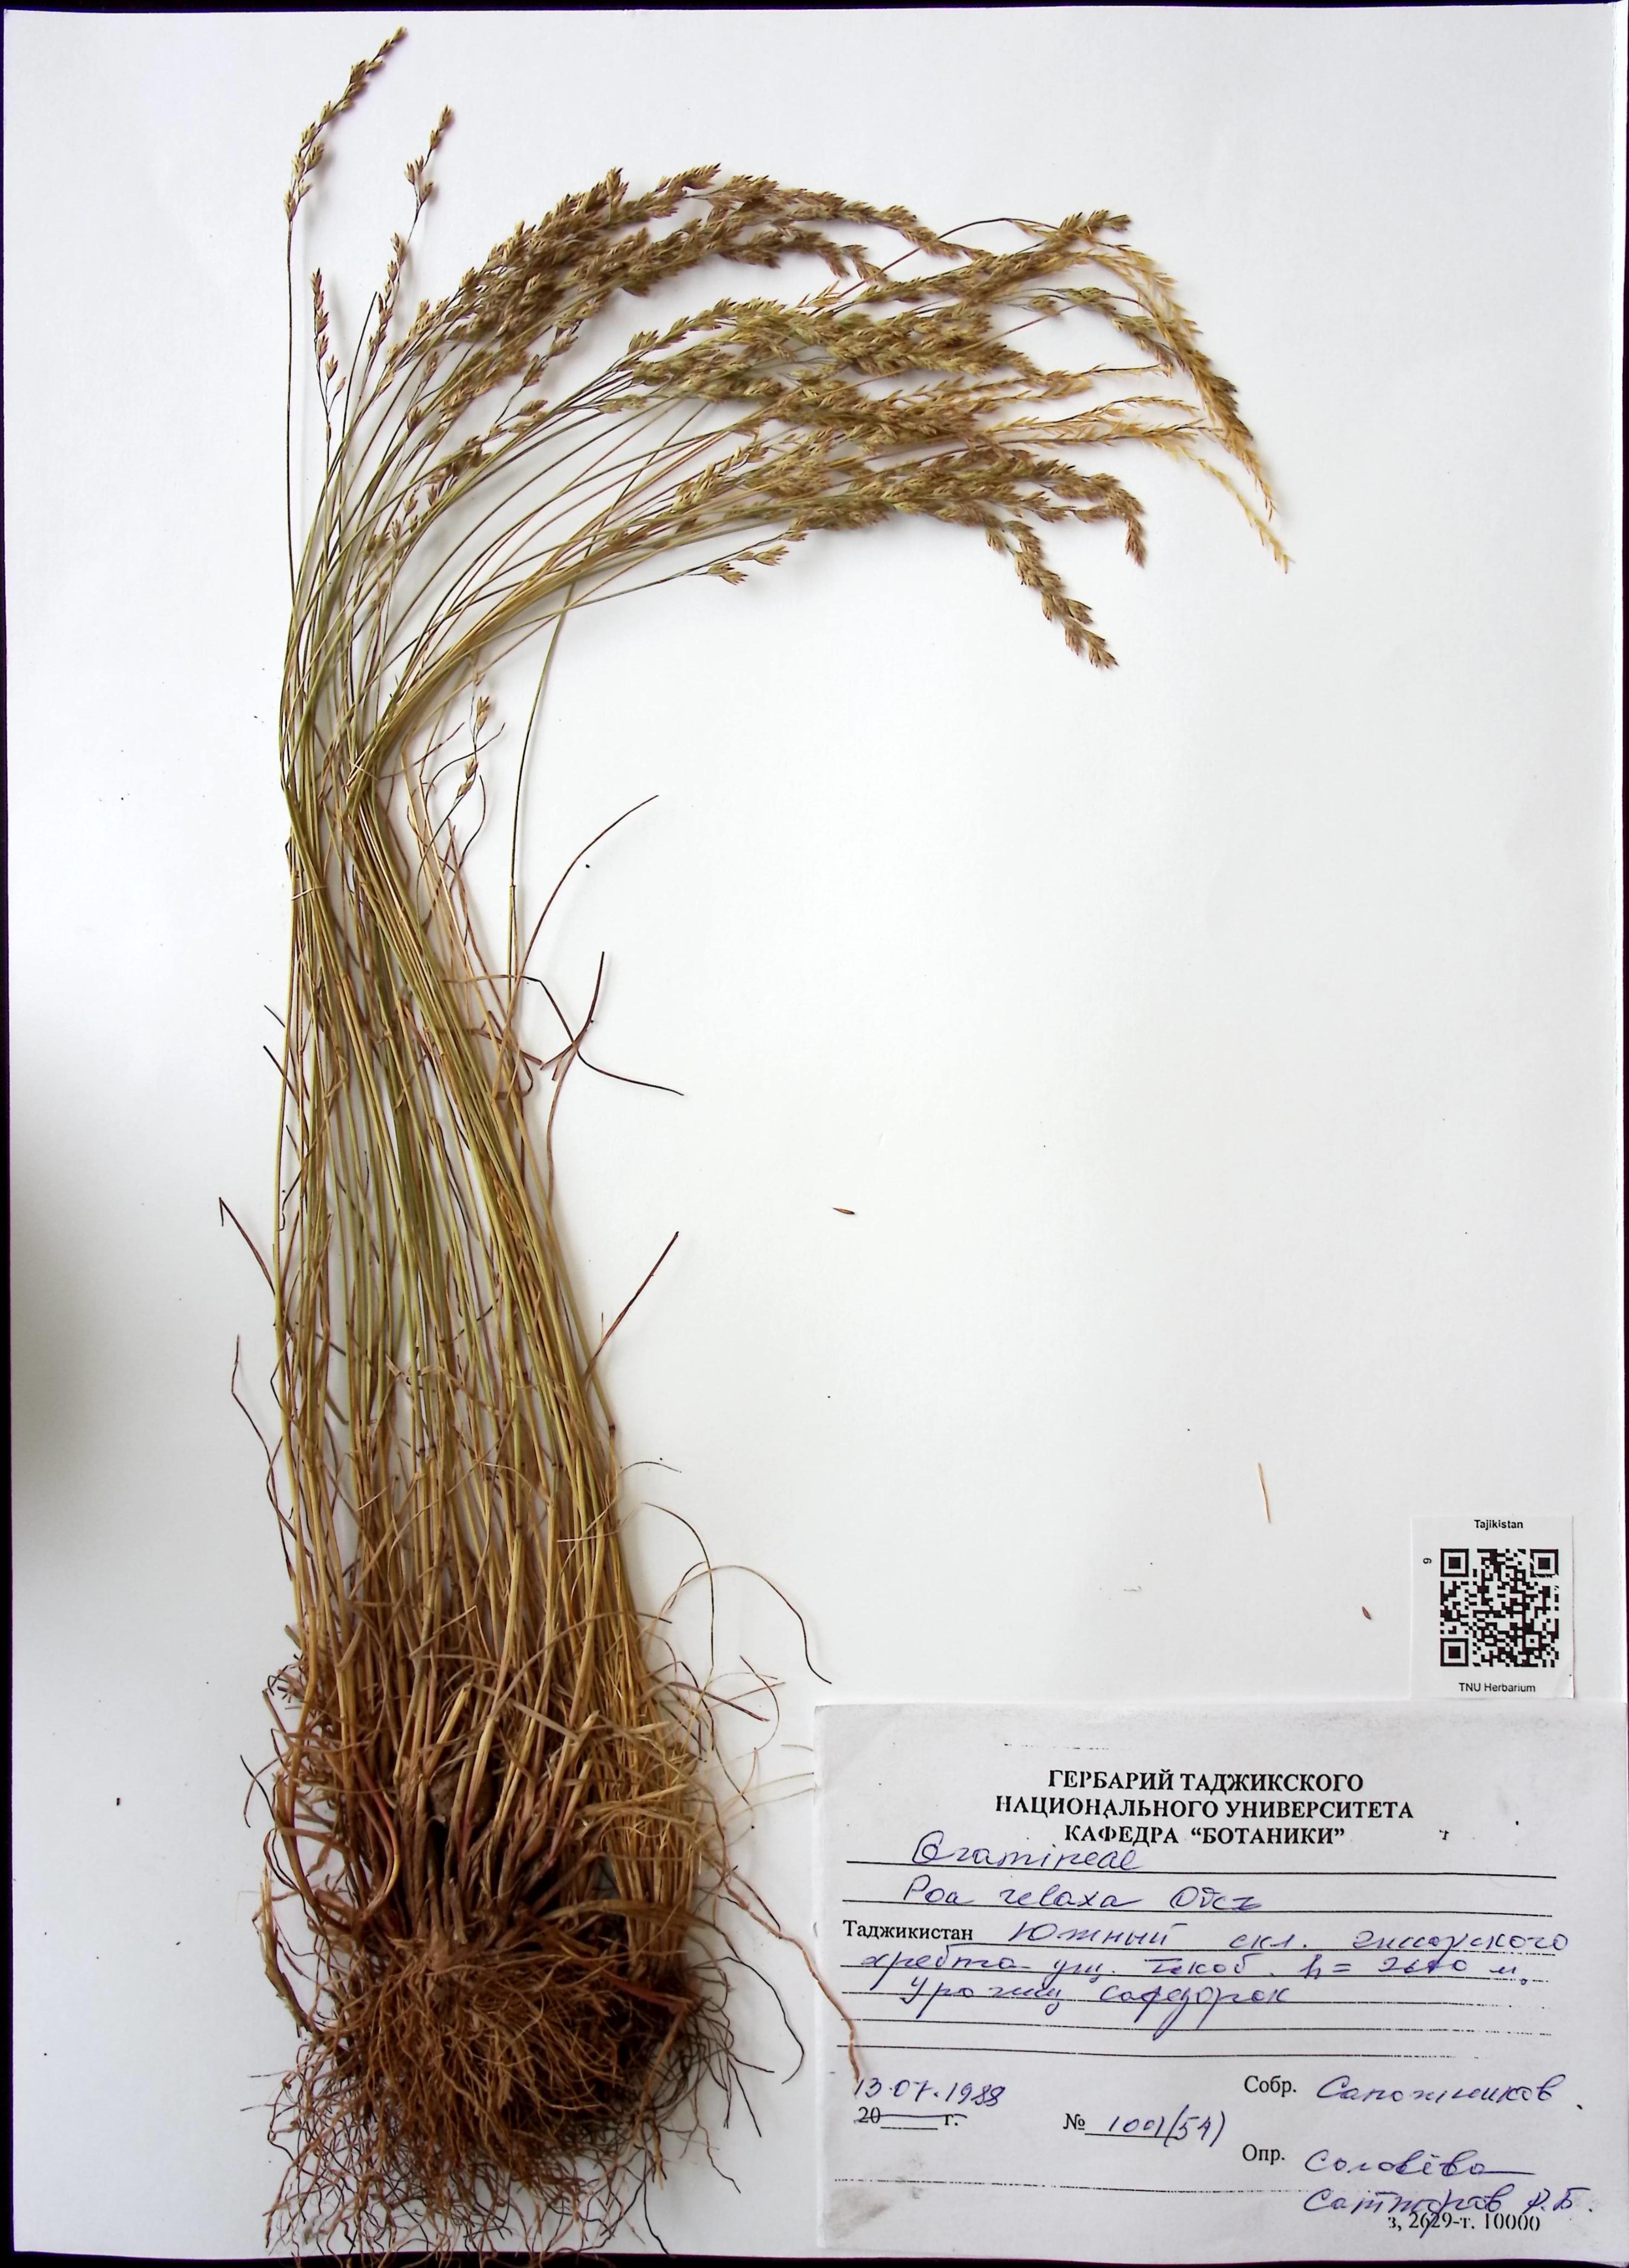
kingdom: Plantae
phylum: Tracheophyta
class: Liliopsida
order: Poales
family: Poaceae
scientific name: Poaceae
